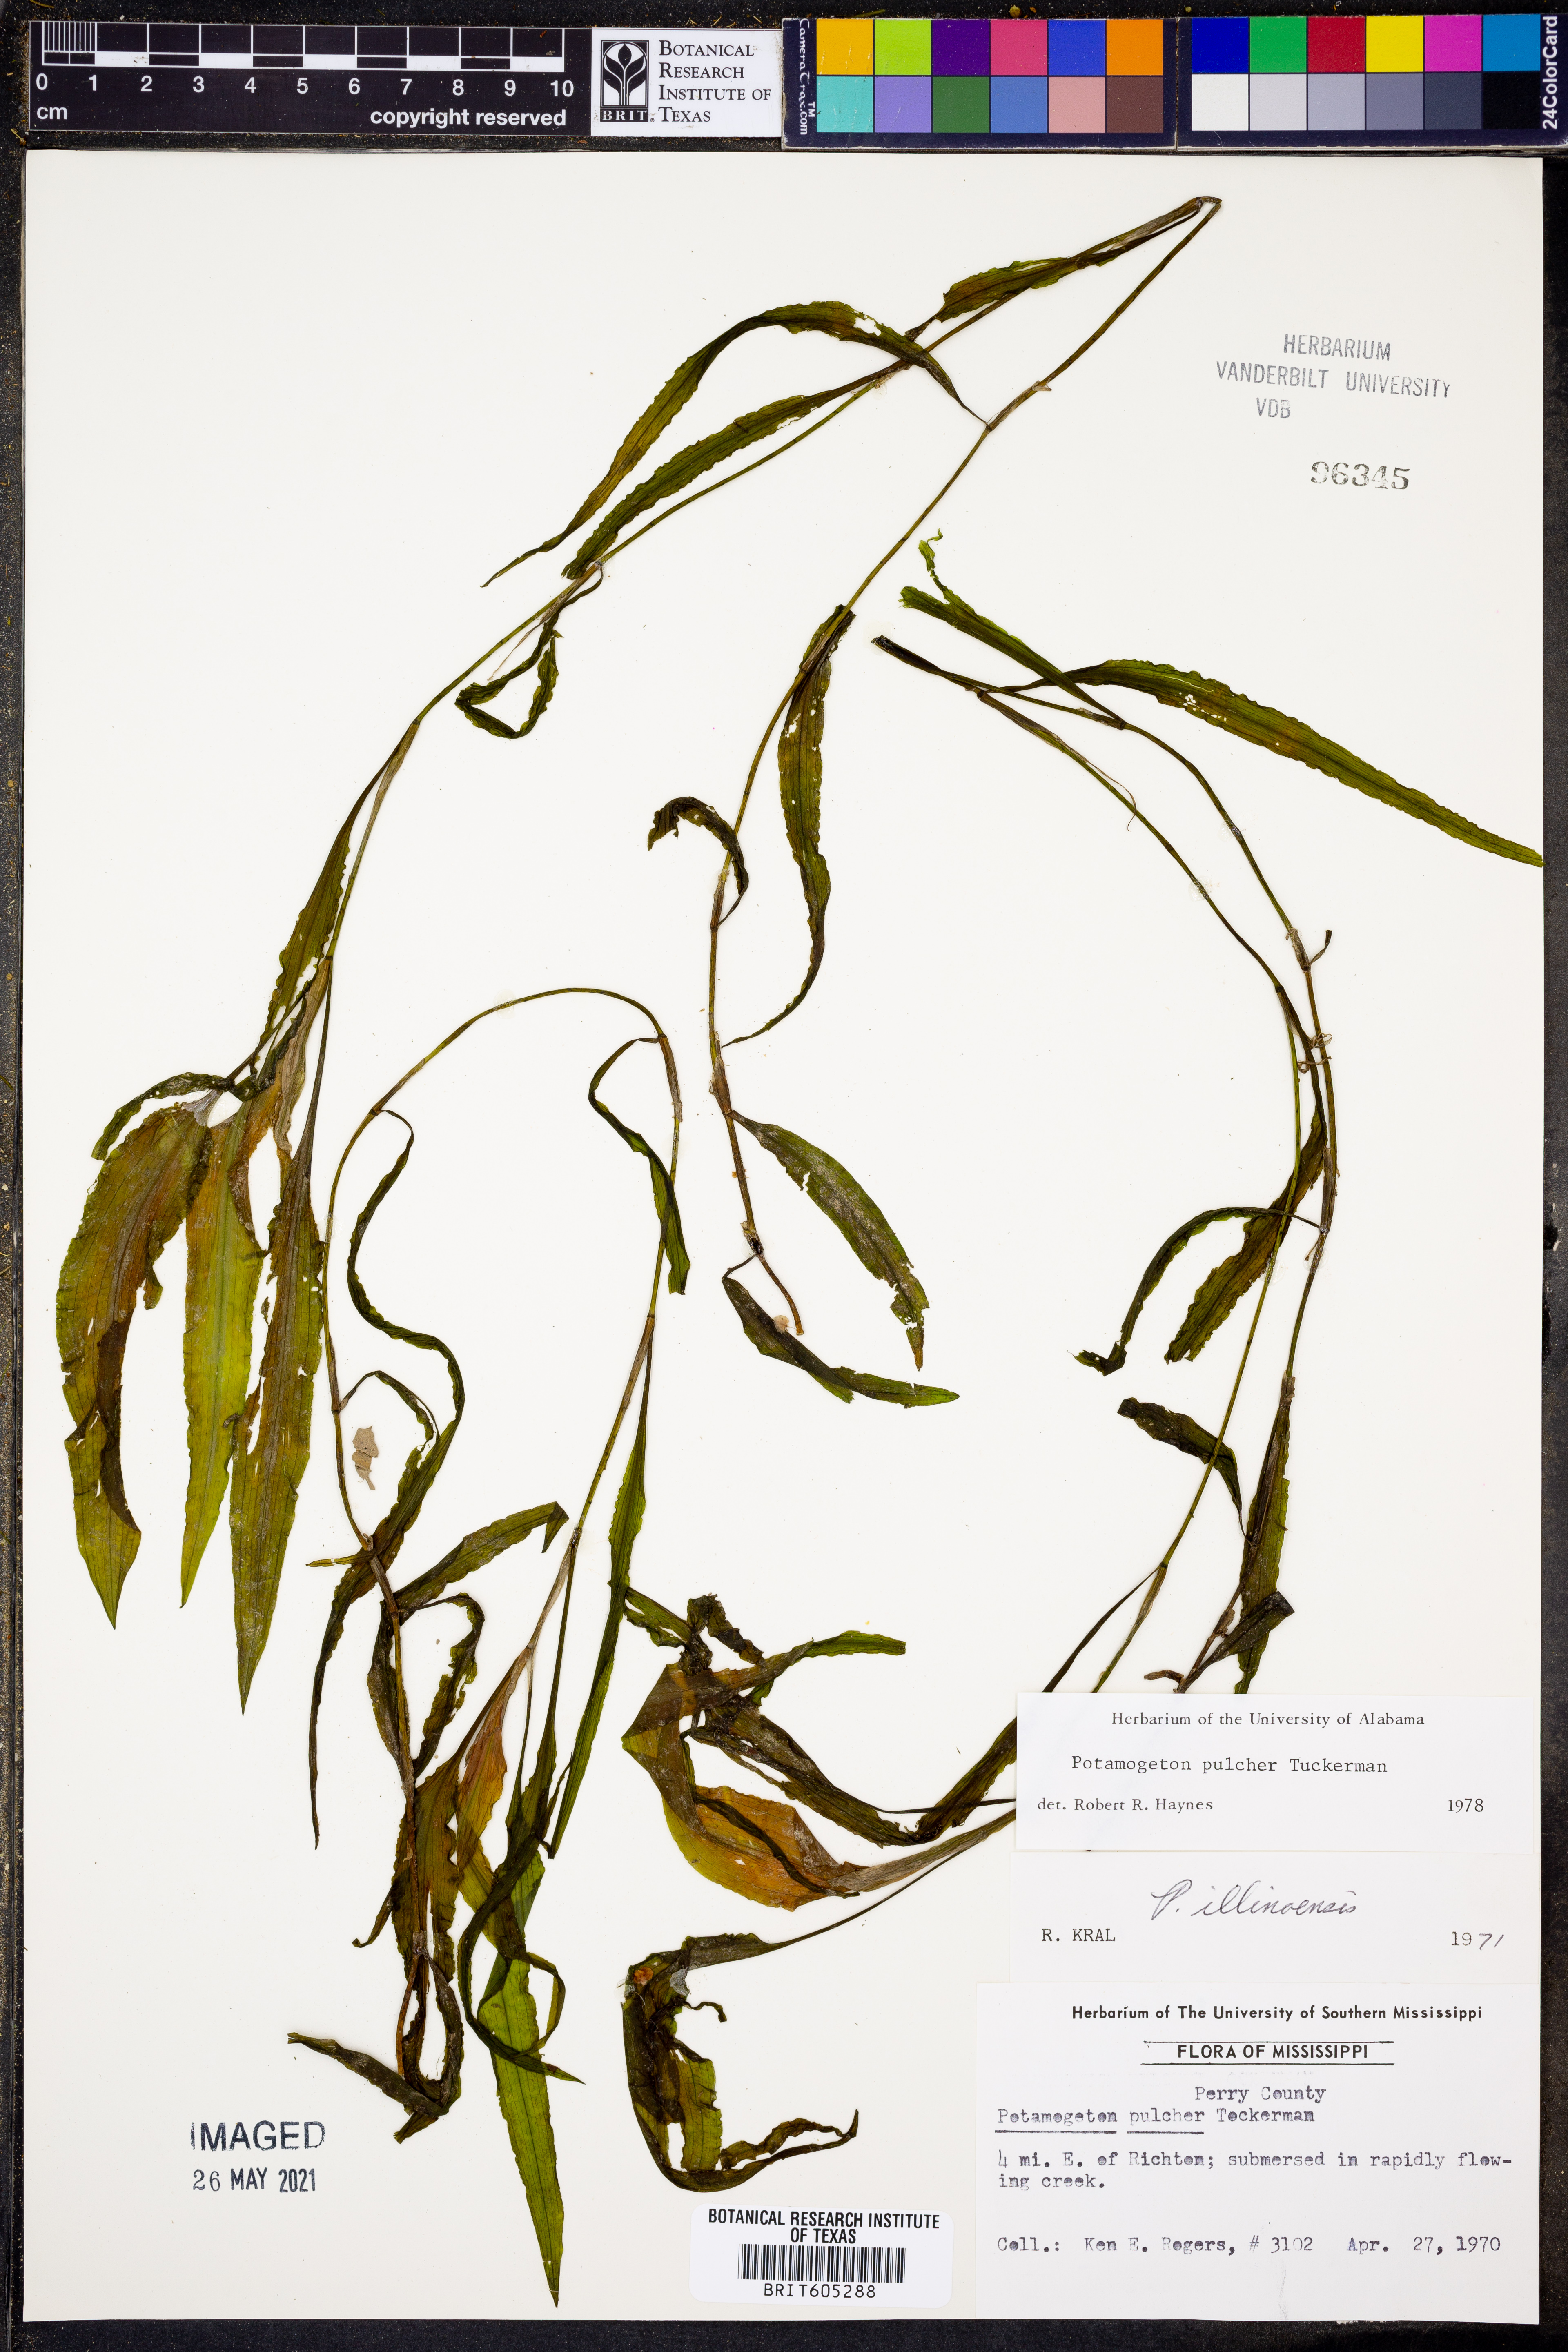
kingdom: Plantae
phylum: Tracheophyta
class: Liliopsida
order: Alismatales
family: Potamogetonaceae
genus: Potamogeton
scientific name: Potamogeton pulcher
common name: Heart-leaved pondweed
